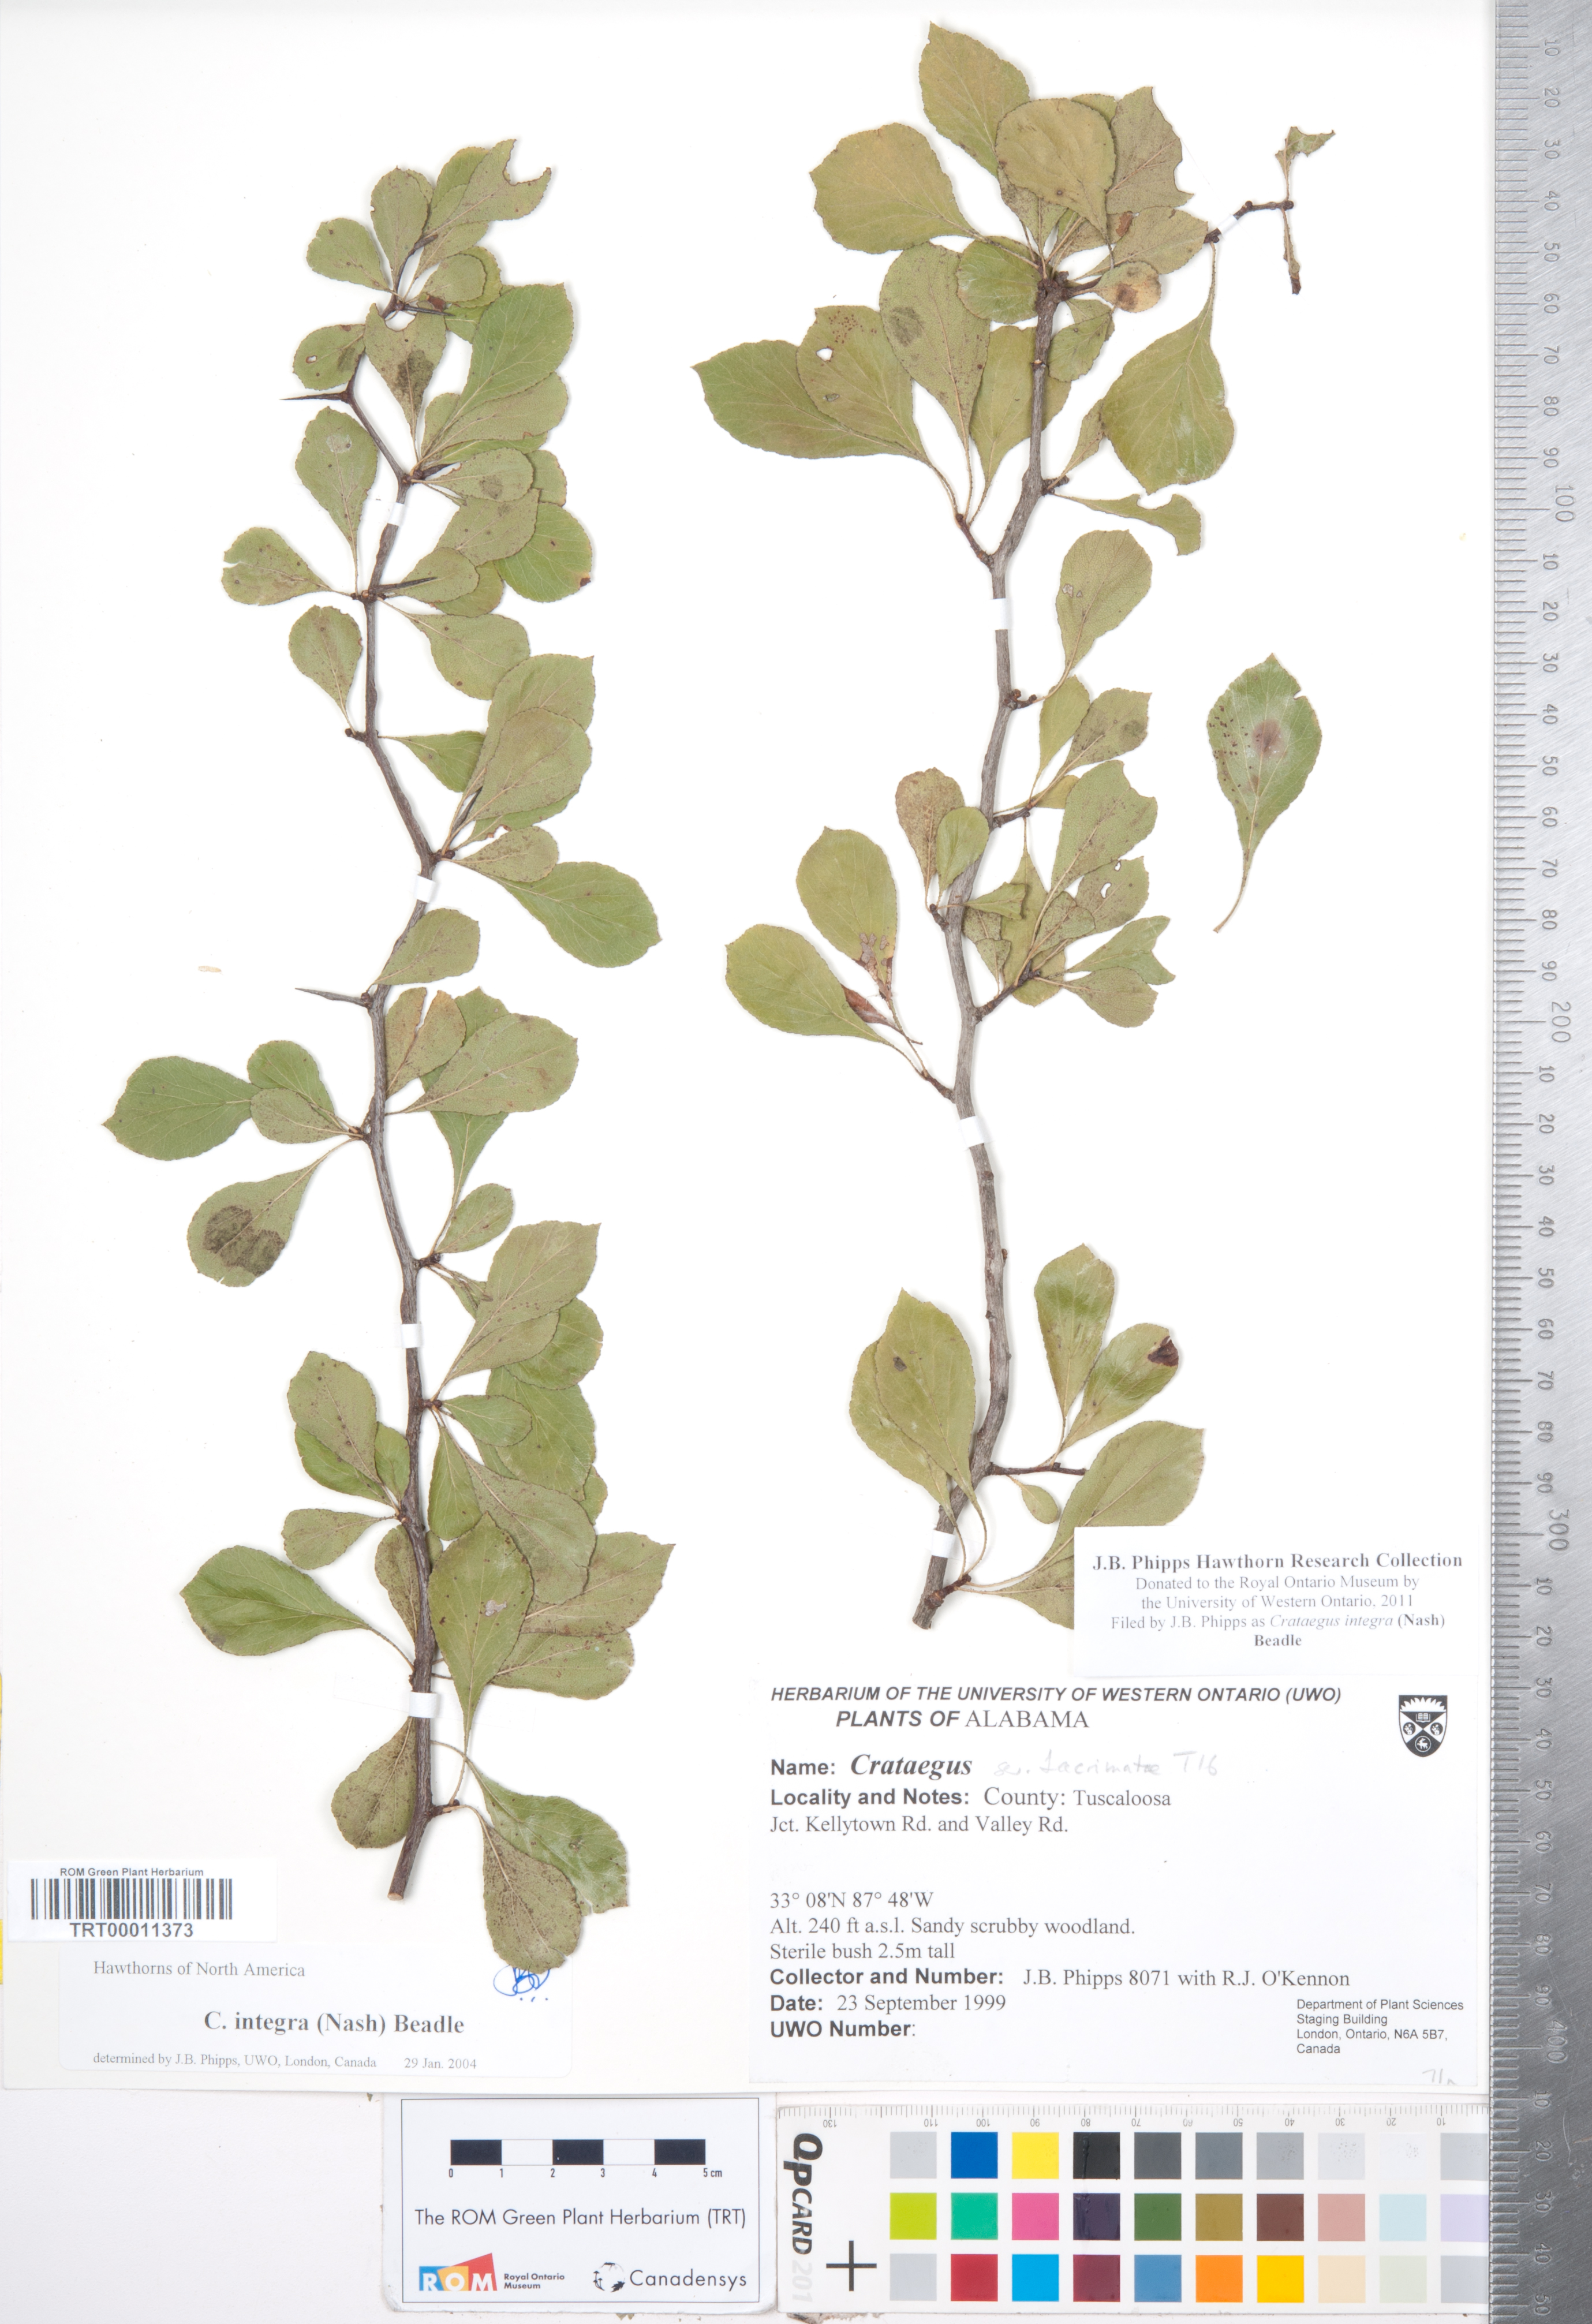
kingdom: Plantae
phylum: Tracheophyta
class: Magnoliopsida
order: Rosales
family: Rosaceae
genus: Crataegus
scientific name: Crataegus lassa
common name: Florida hawthorn
